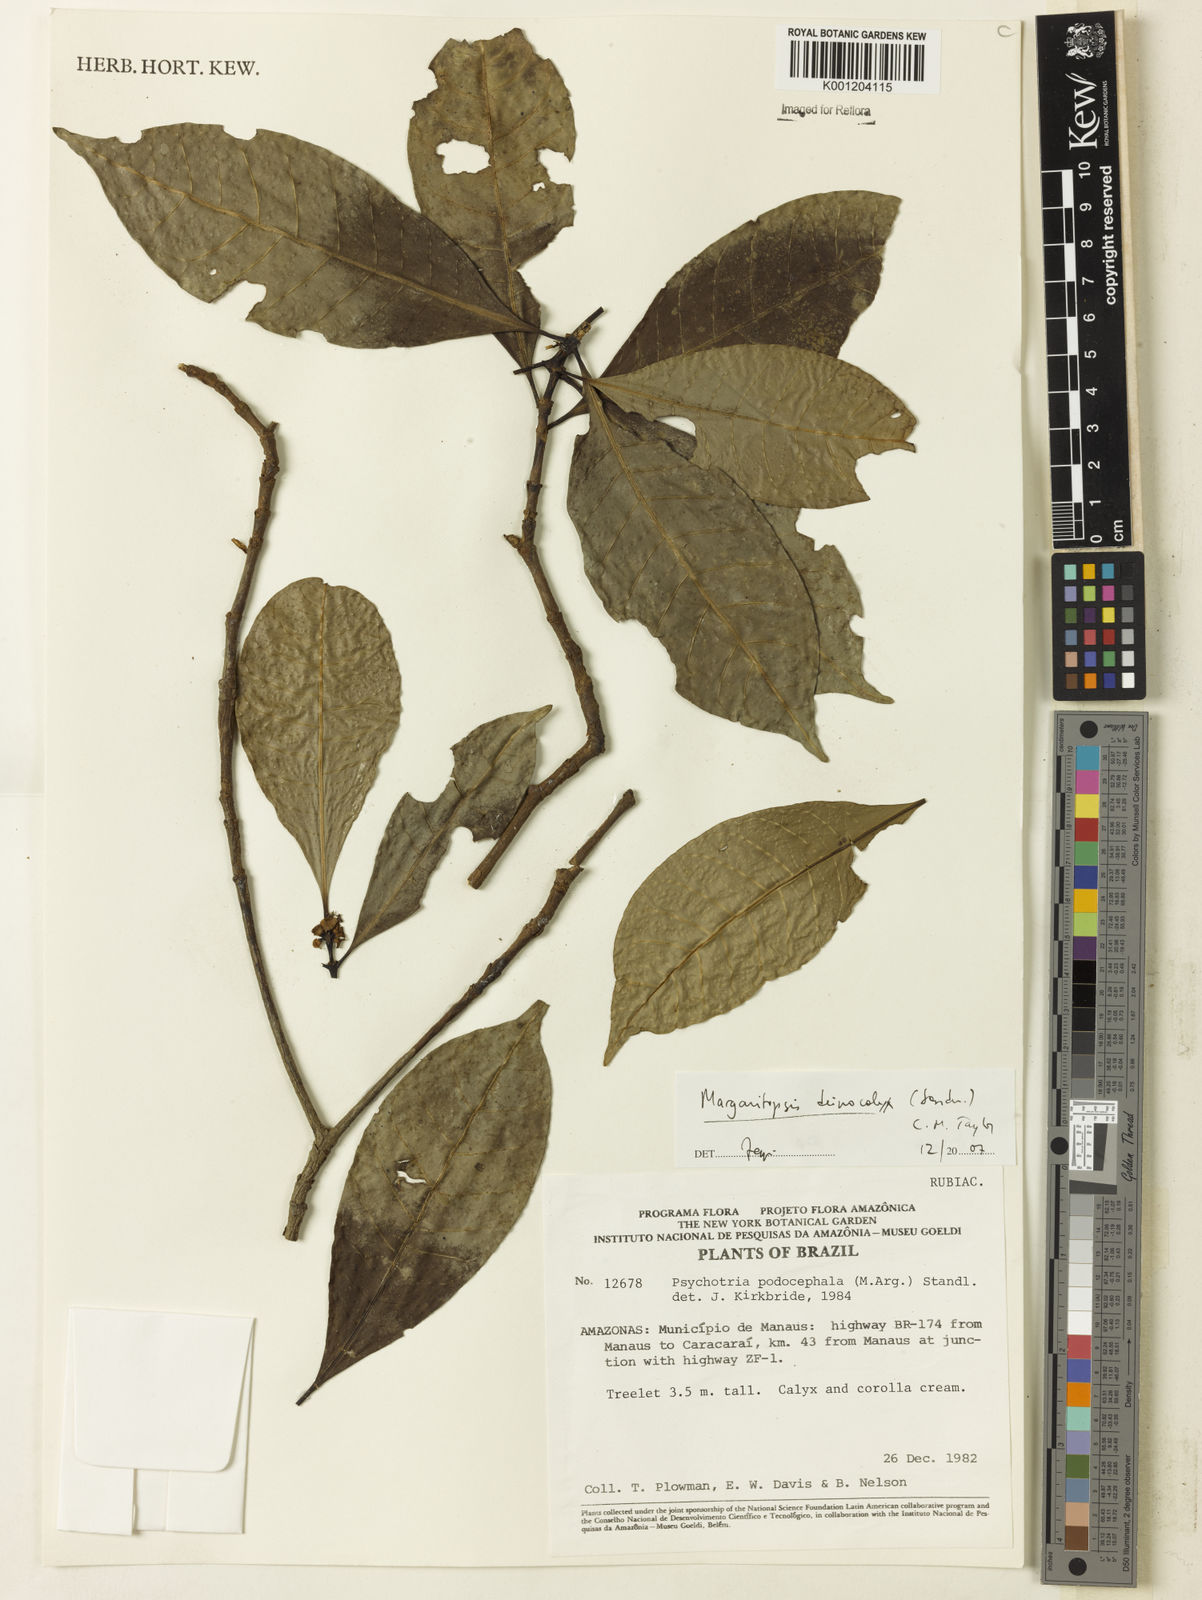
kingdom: Plantae
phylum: Tracheophyta
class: Magnoliopsida
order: Gentianales
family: Rubiaceae
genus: Eumachia
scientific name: Eumachia deinocalyx
